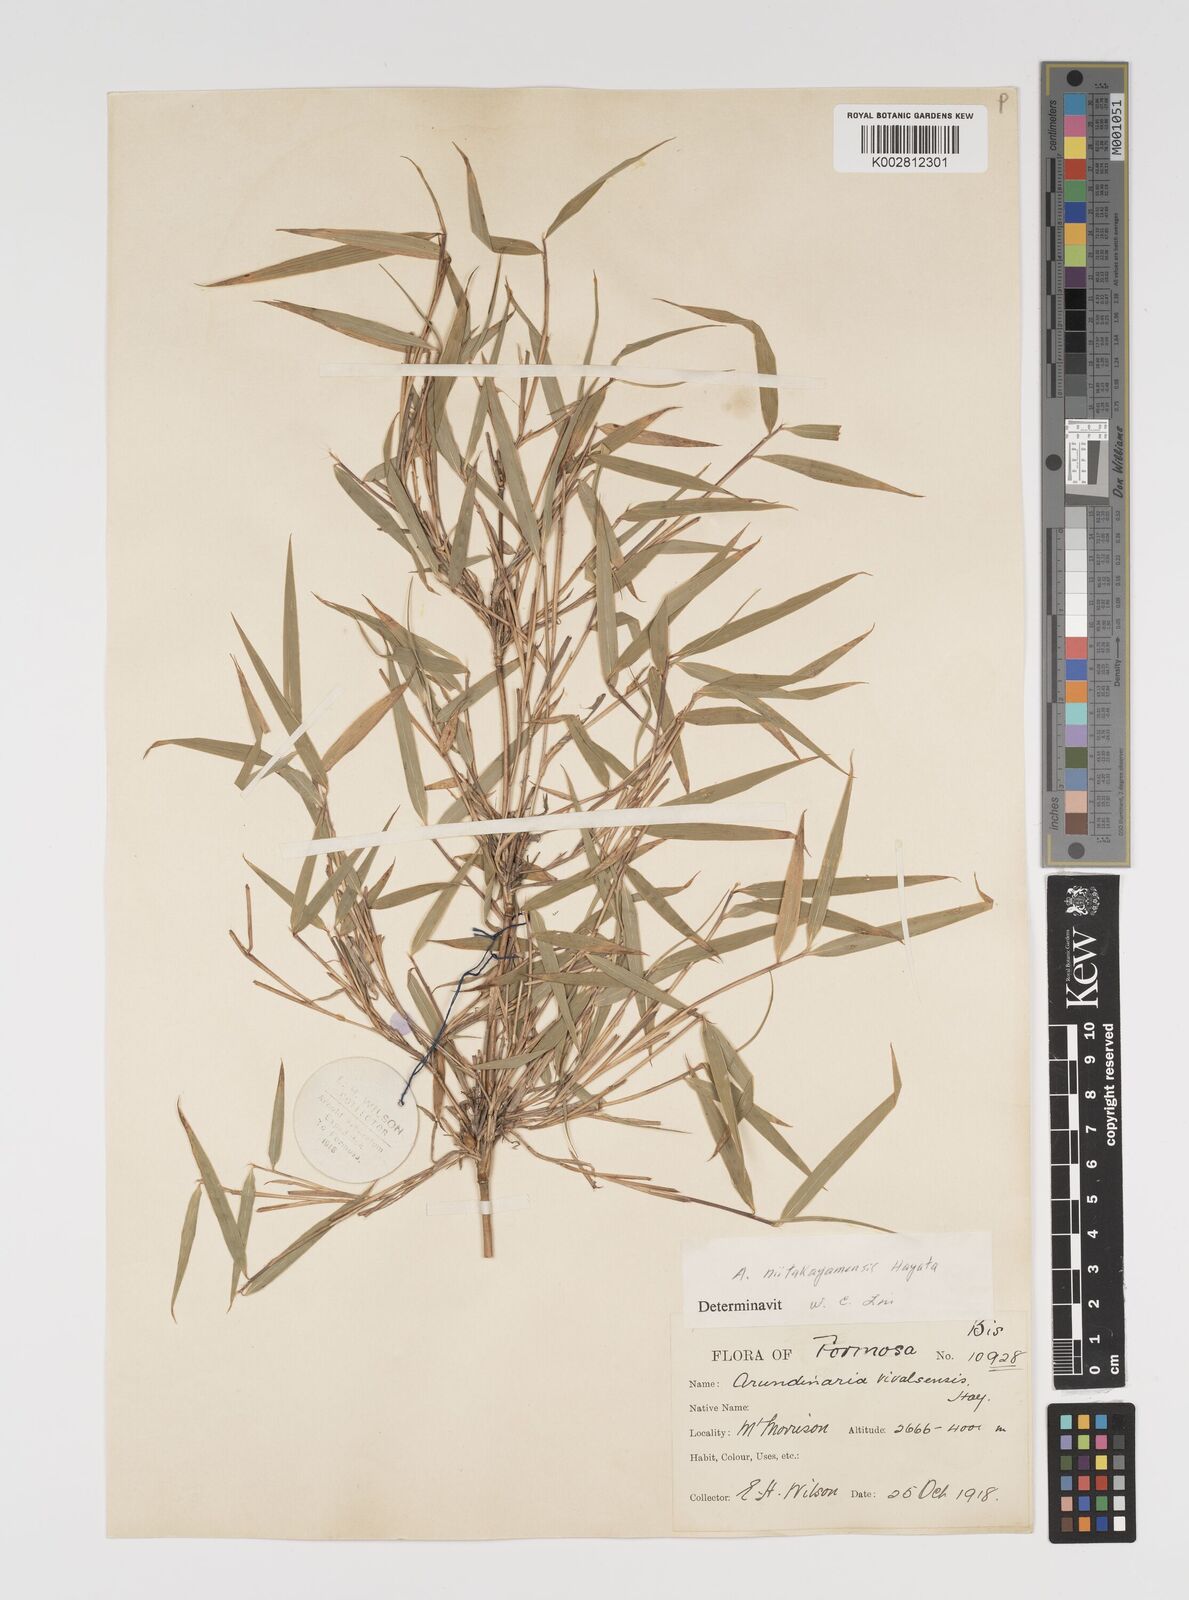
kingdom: Plantae
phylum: Tracheophyta
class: Liliopsida
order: Poales
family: Poaceae
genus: Yushania
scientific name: Yushania niitakayamensis
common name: Yushan cane
